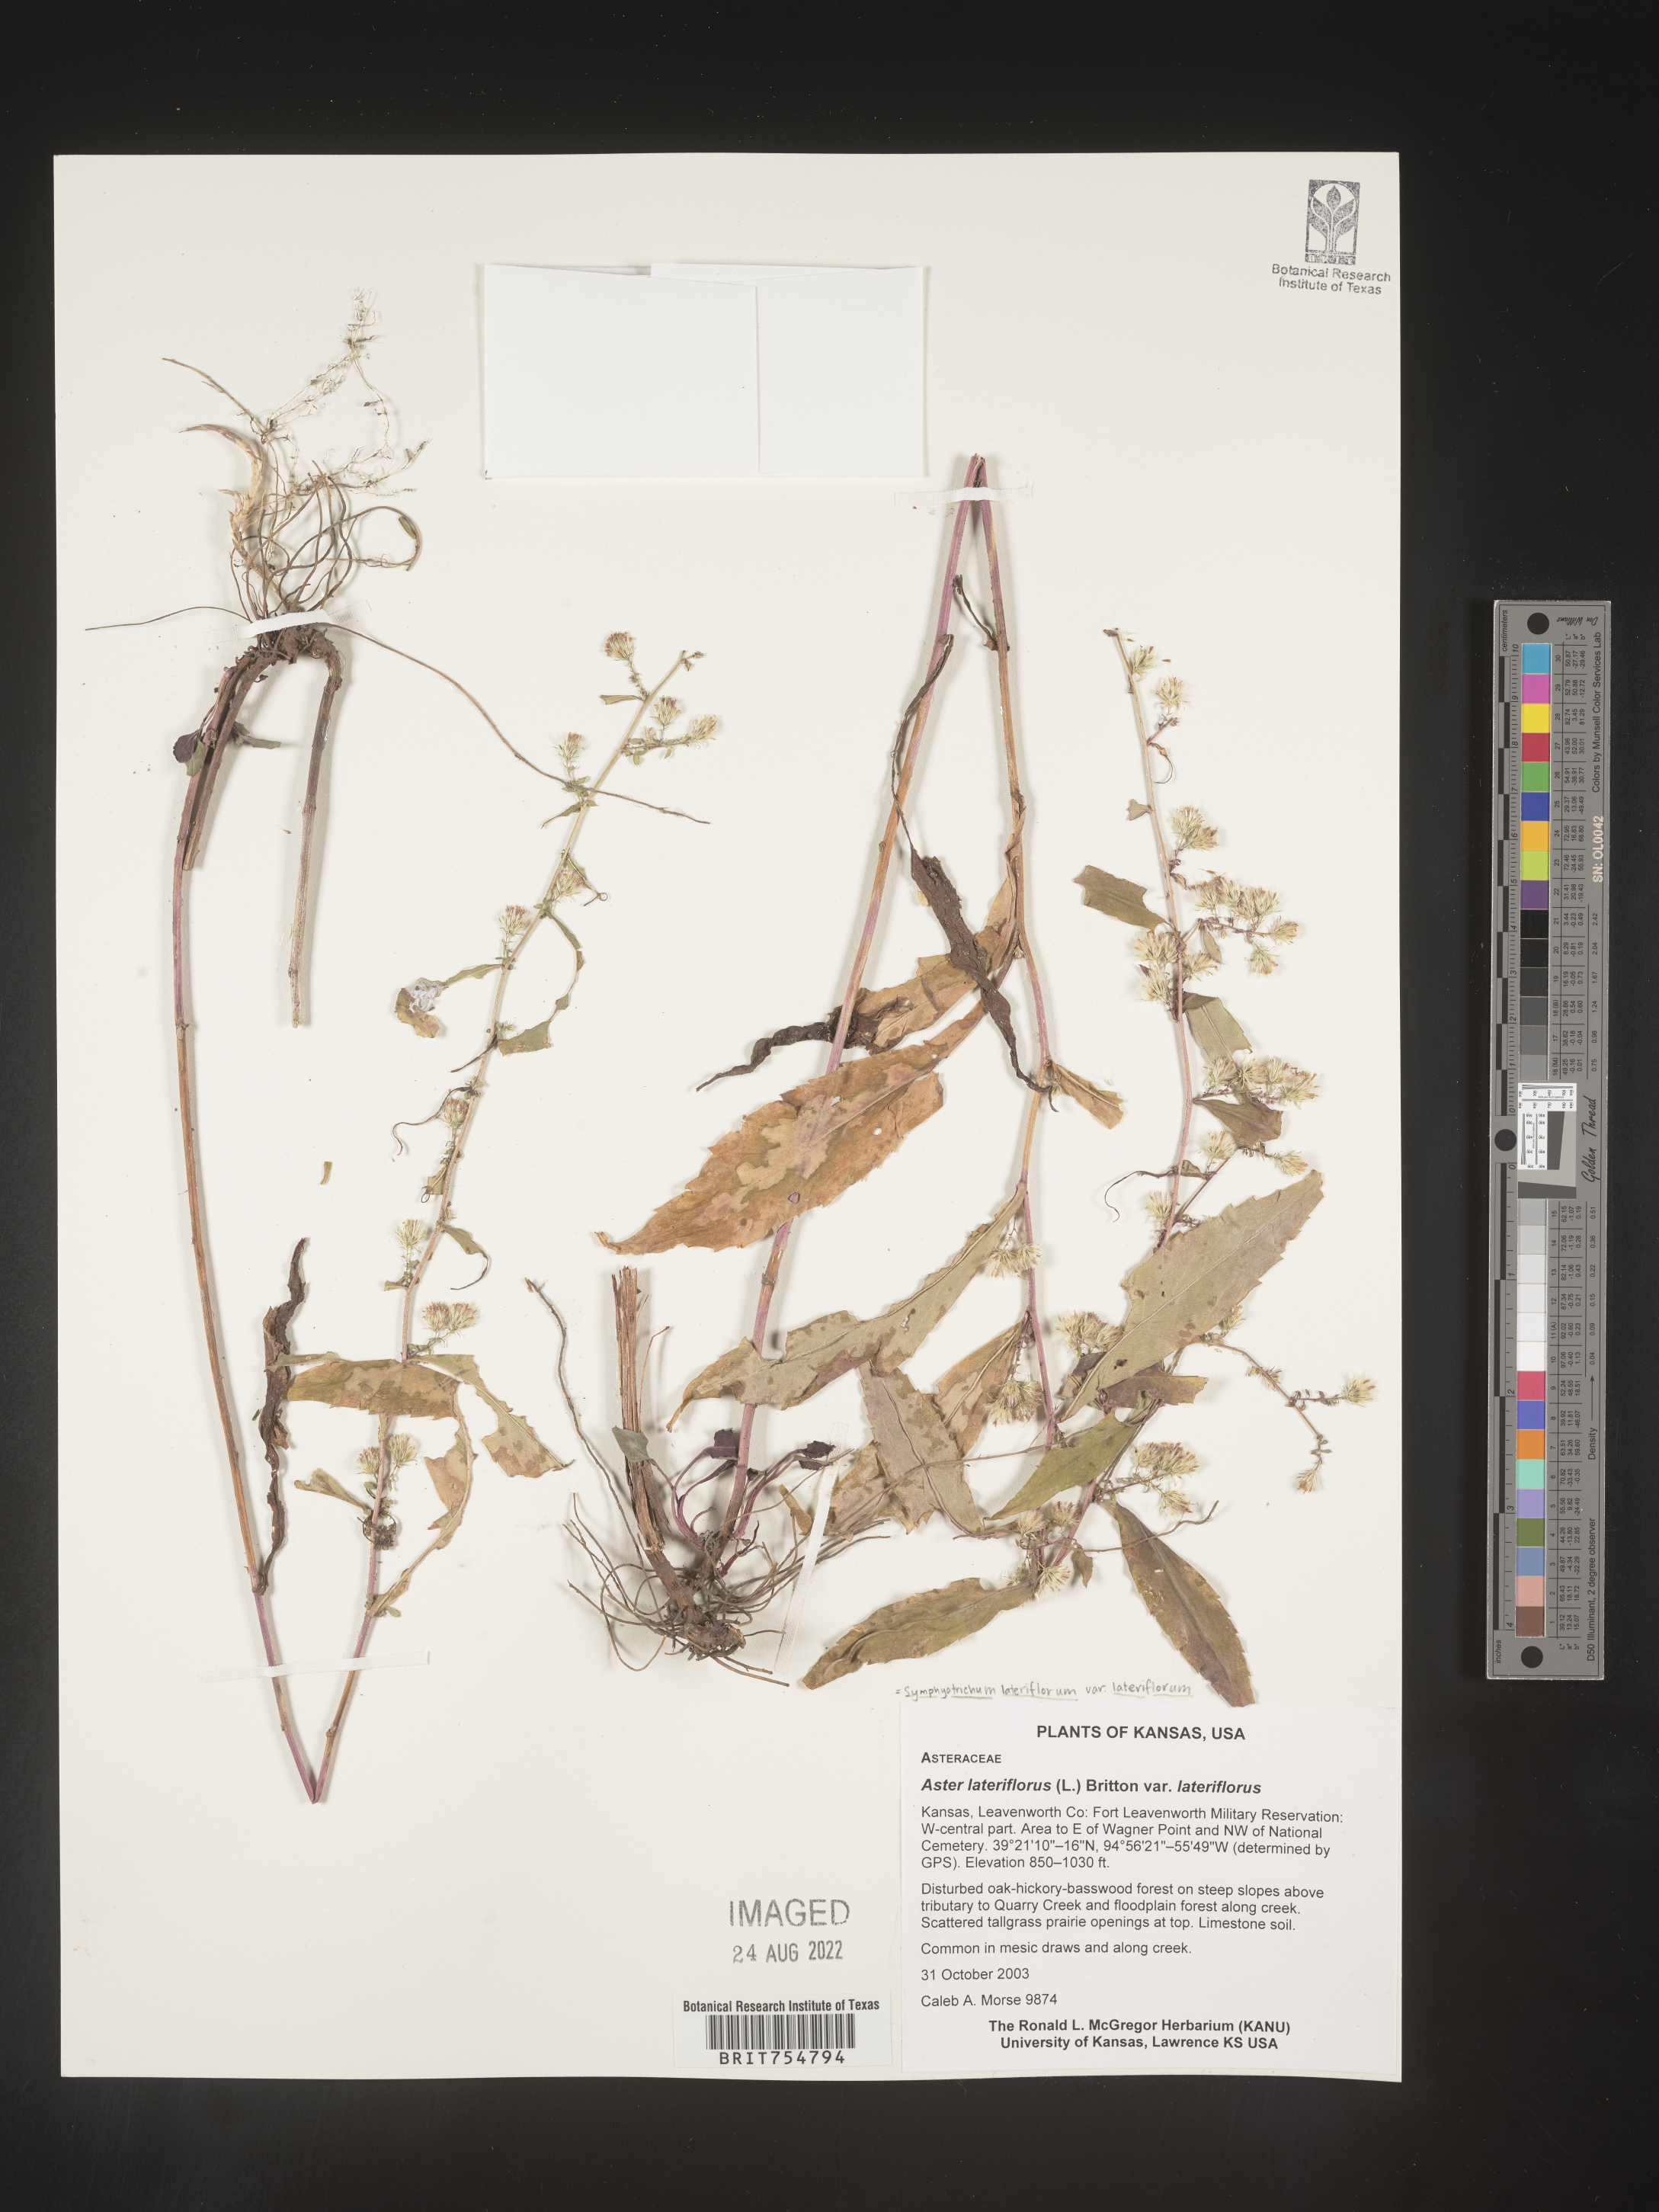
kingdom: Plantae
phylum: Tracheophyta
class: Magnoliopsida
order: Asterales
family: Asteraceae
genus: Symphyotrichum
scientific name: Symphyotrichum
